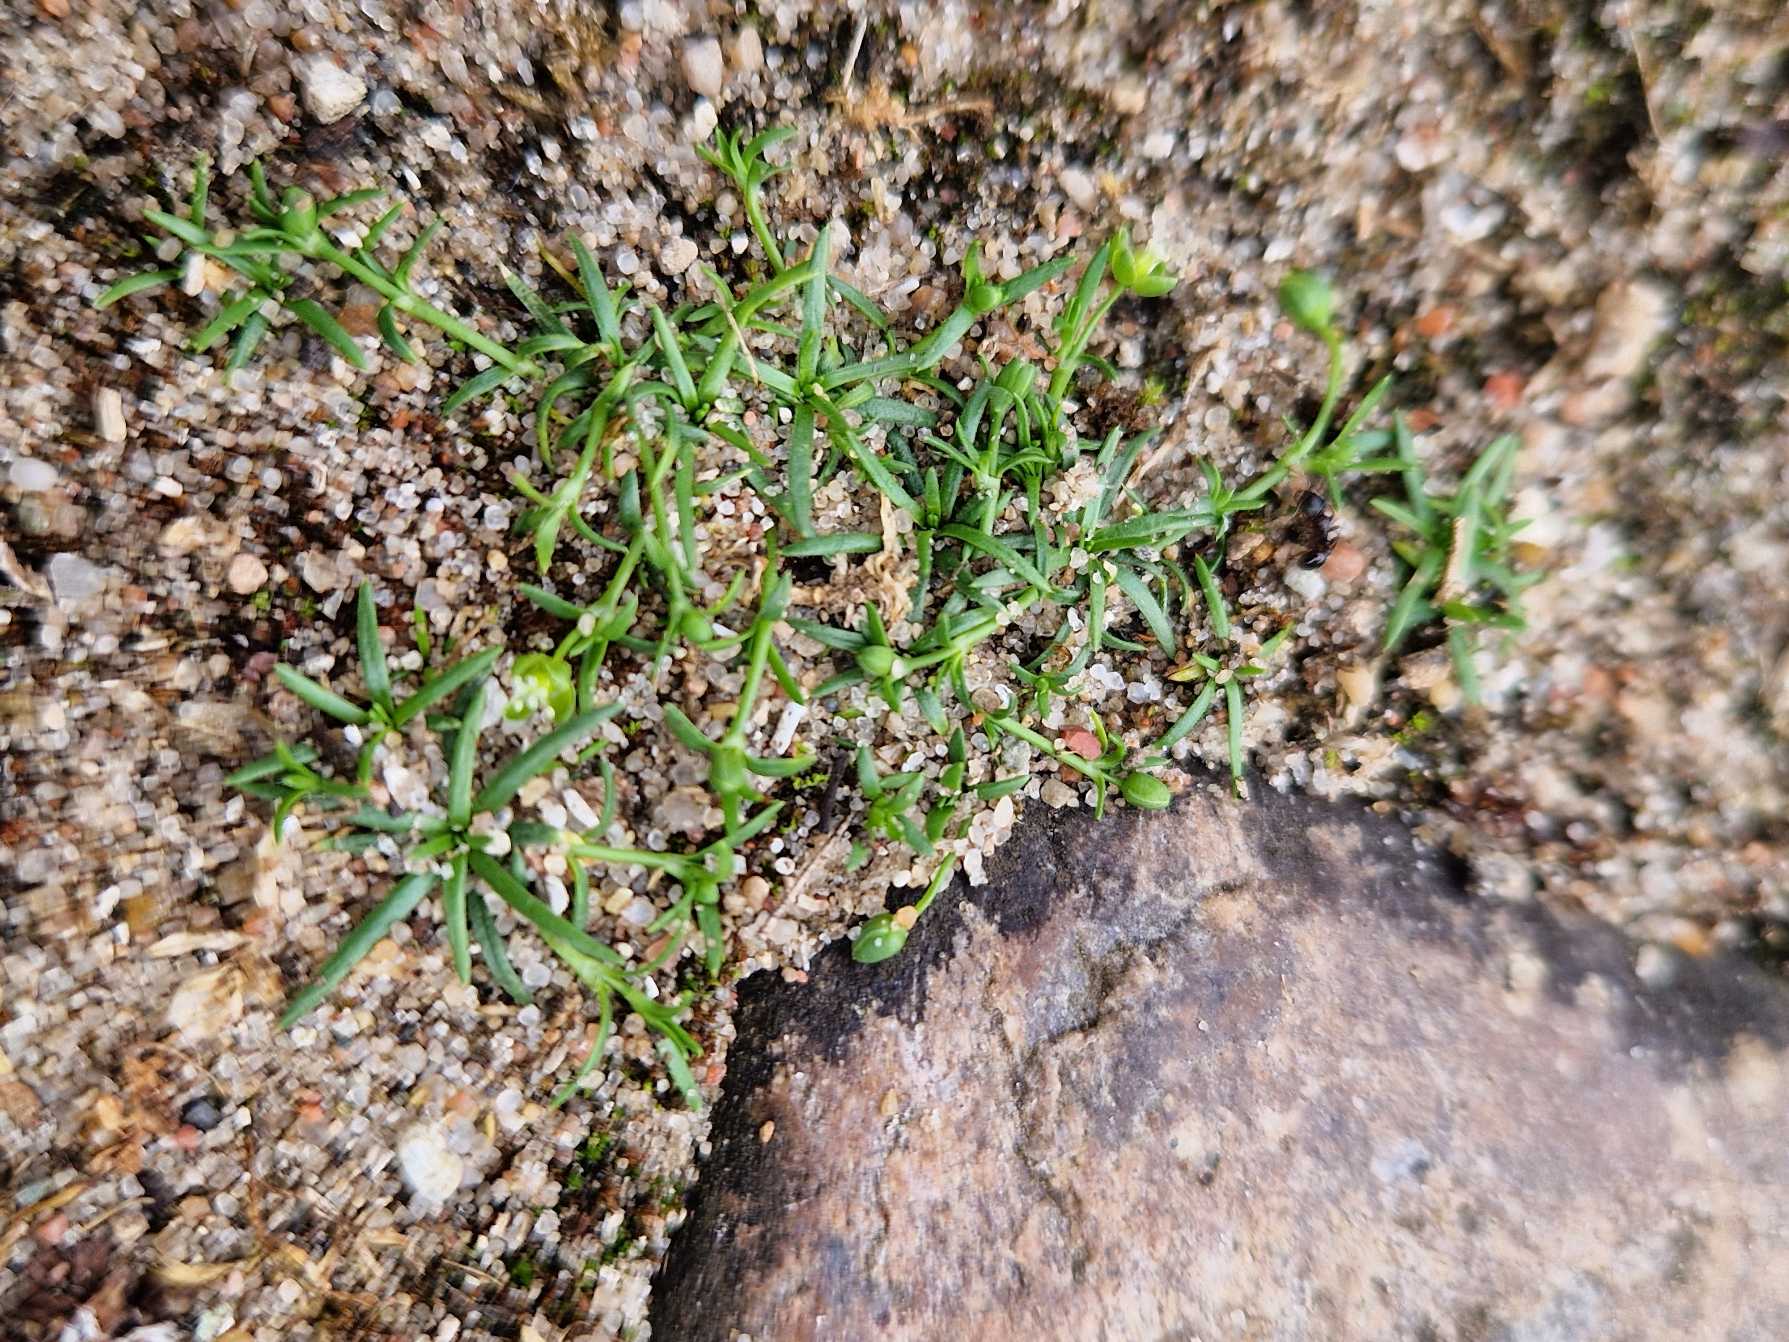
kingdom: Plantae
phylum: Tracheophyta
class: Magnoliopsida
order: Caryophyllales
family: Caryophyllaceae
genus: Sagina
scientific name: Sagina procumbens
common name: Almindelig firling
